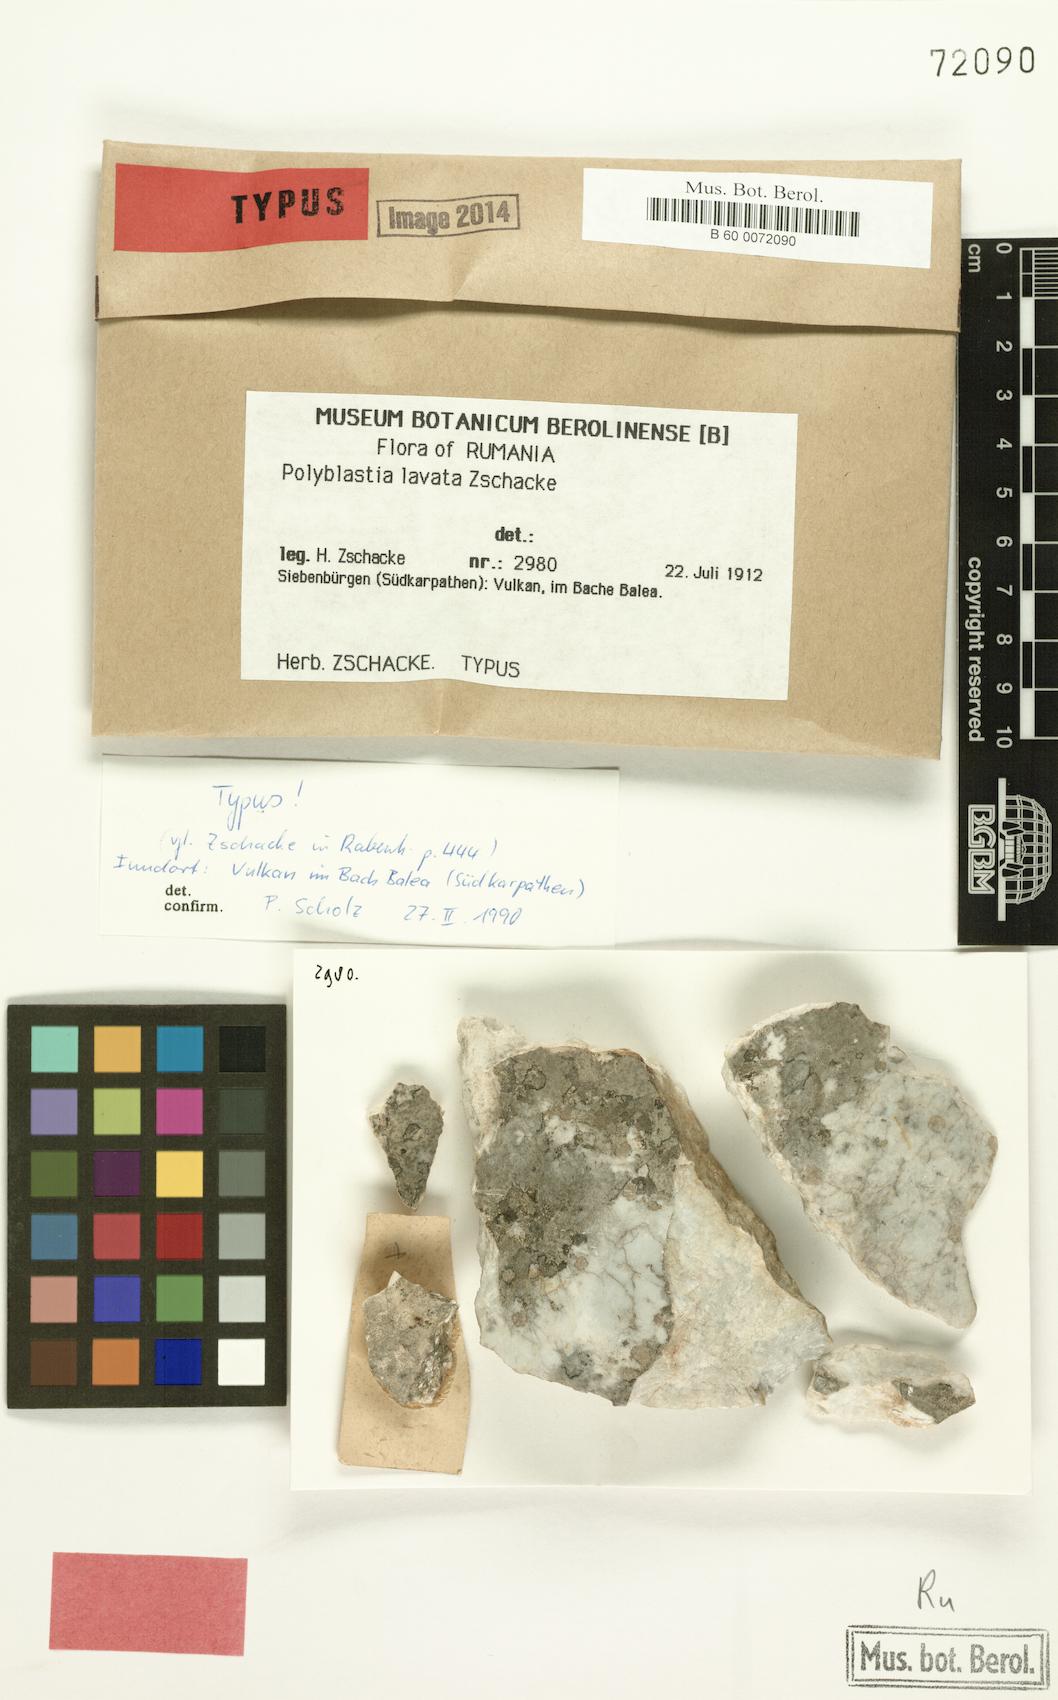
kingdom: Fungi
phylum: Ascomycota
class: Eurotiomycetes
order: Verrucariales
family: Verrucariaceae
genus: Polyblastia
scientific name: Polyblastia sepulta
